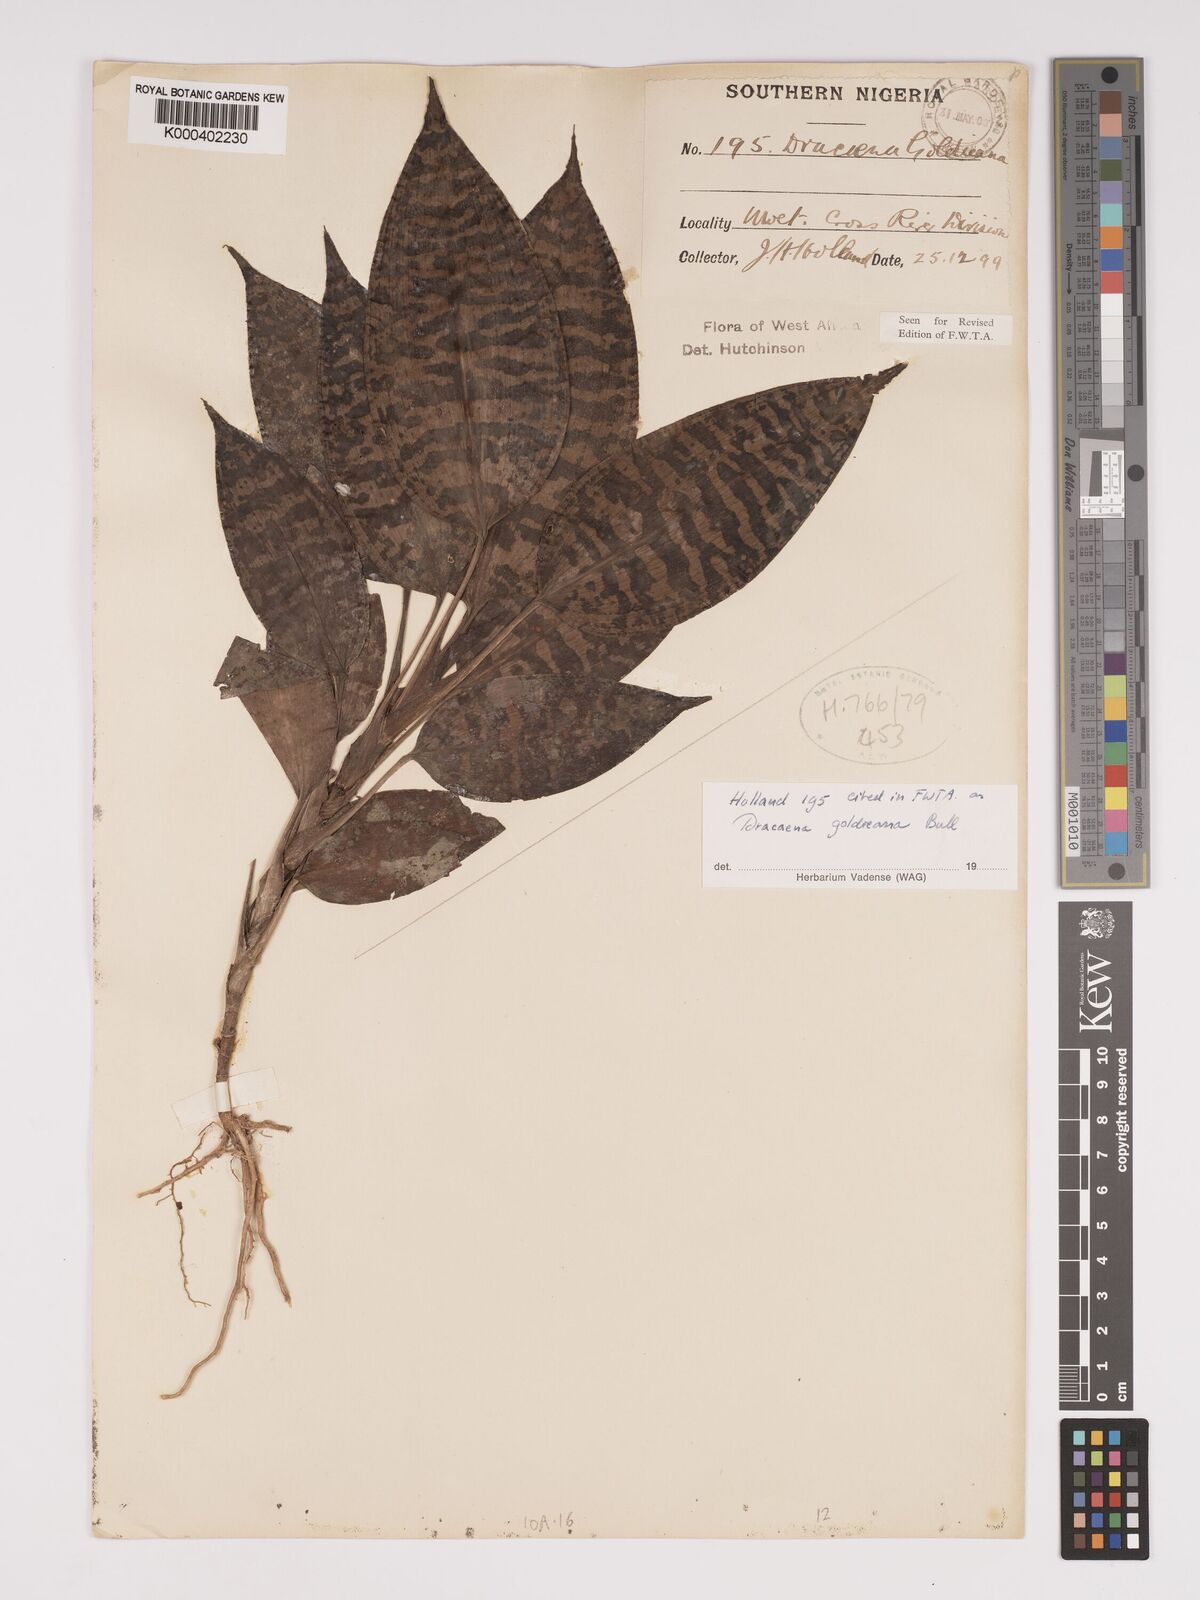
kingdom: Plantae
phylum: Tracheophyta
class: Liliopsida
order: Asparagales
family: Asparagaceae
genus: Dracaena
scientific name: Dracaena goldieana
